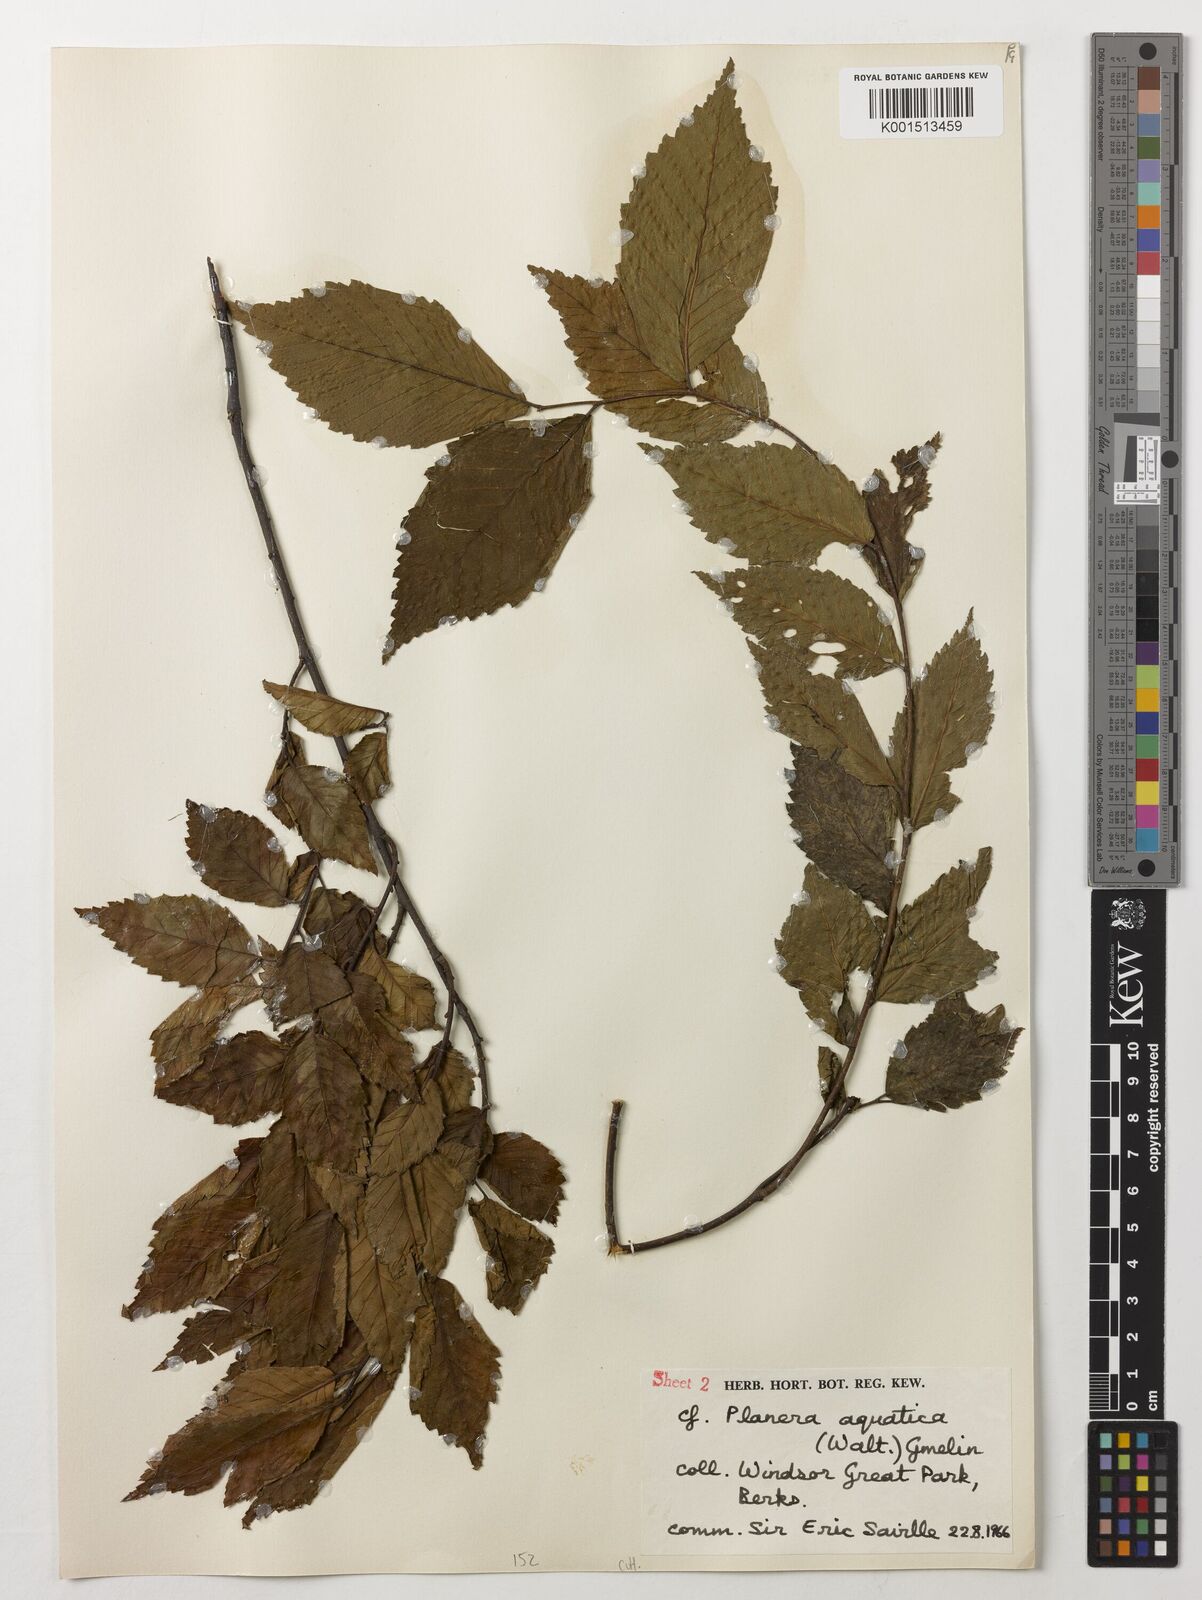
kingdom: Plantae
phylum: Tracheophyta
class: Magnoliopsida
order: Rosales
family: Ulmaceae
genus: Planera
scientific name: Planera aquatica
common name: Water-elm
